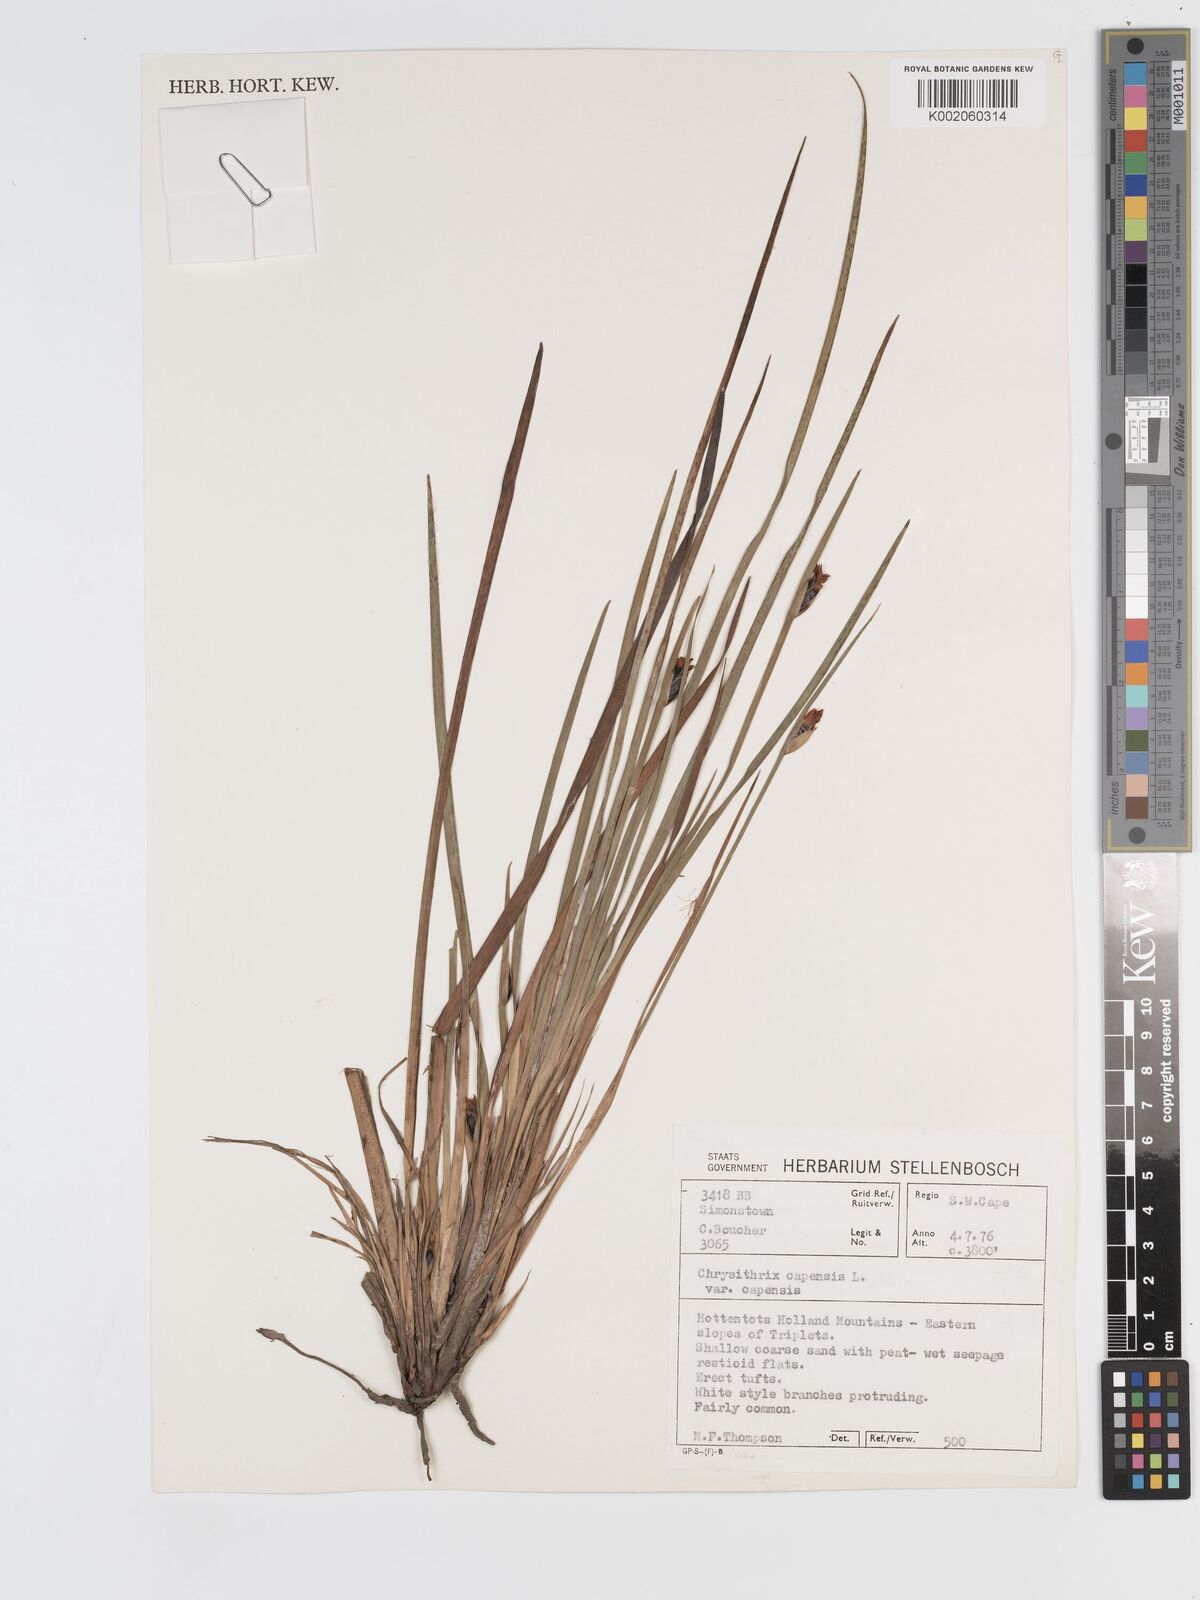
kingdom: Plantae
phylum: Tracheophyta
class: Liliopsida
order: Poales
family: Cyperaceae
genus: Chrysitrix
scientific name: Chrysitrix capensis
